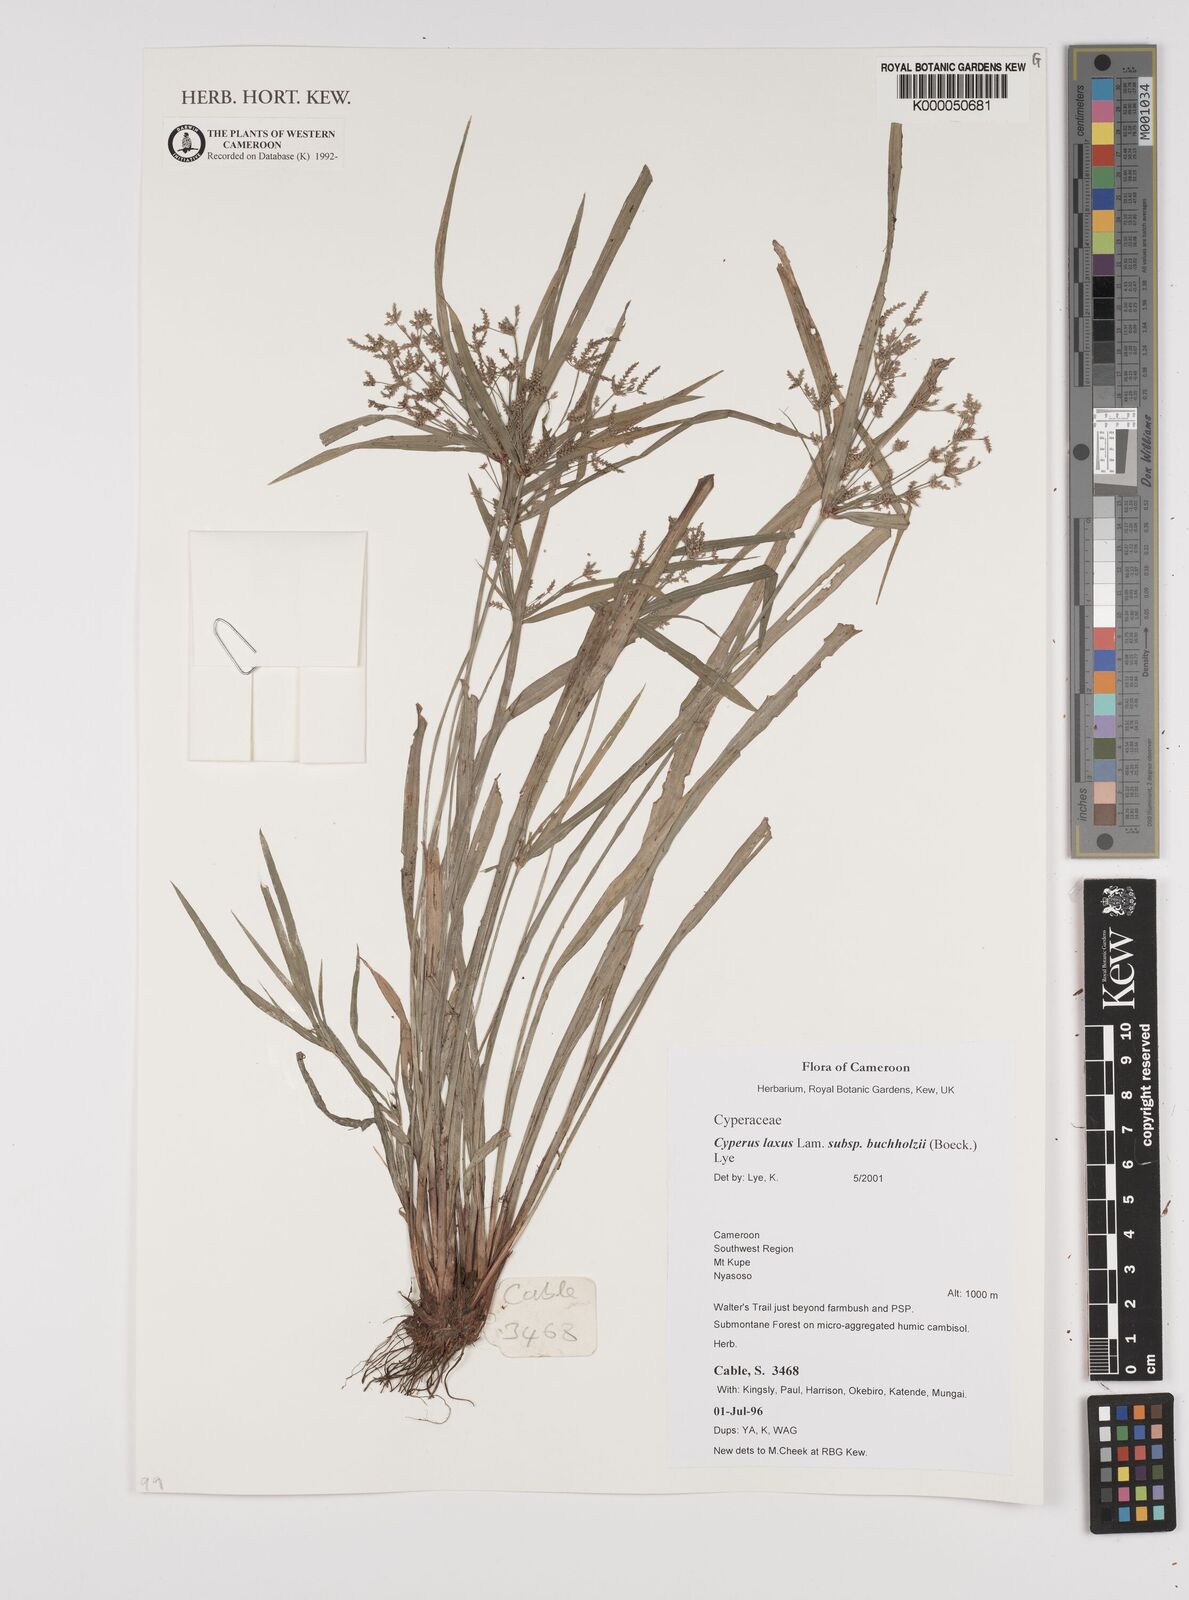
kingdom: Plantae
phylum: Tracheophyta
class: Liliopsida
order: Poales
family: Cyperaceae
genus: Cyperus
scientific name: Cyperus buchholzii
